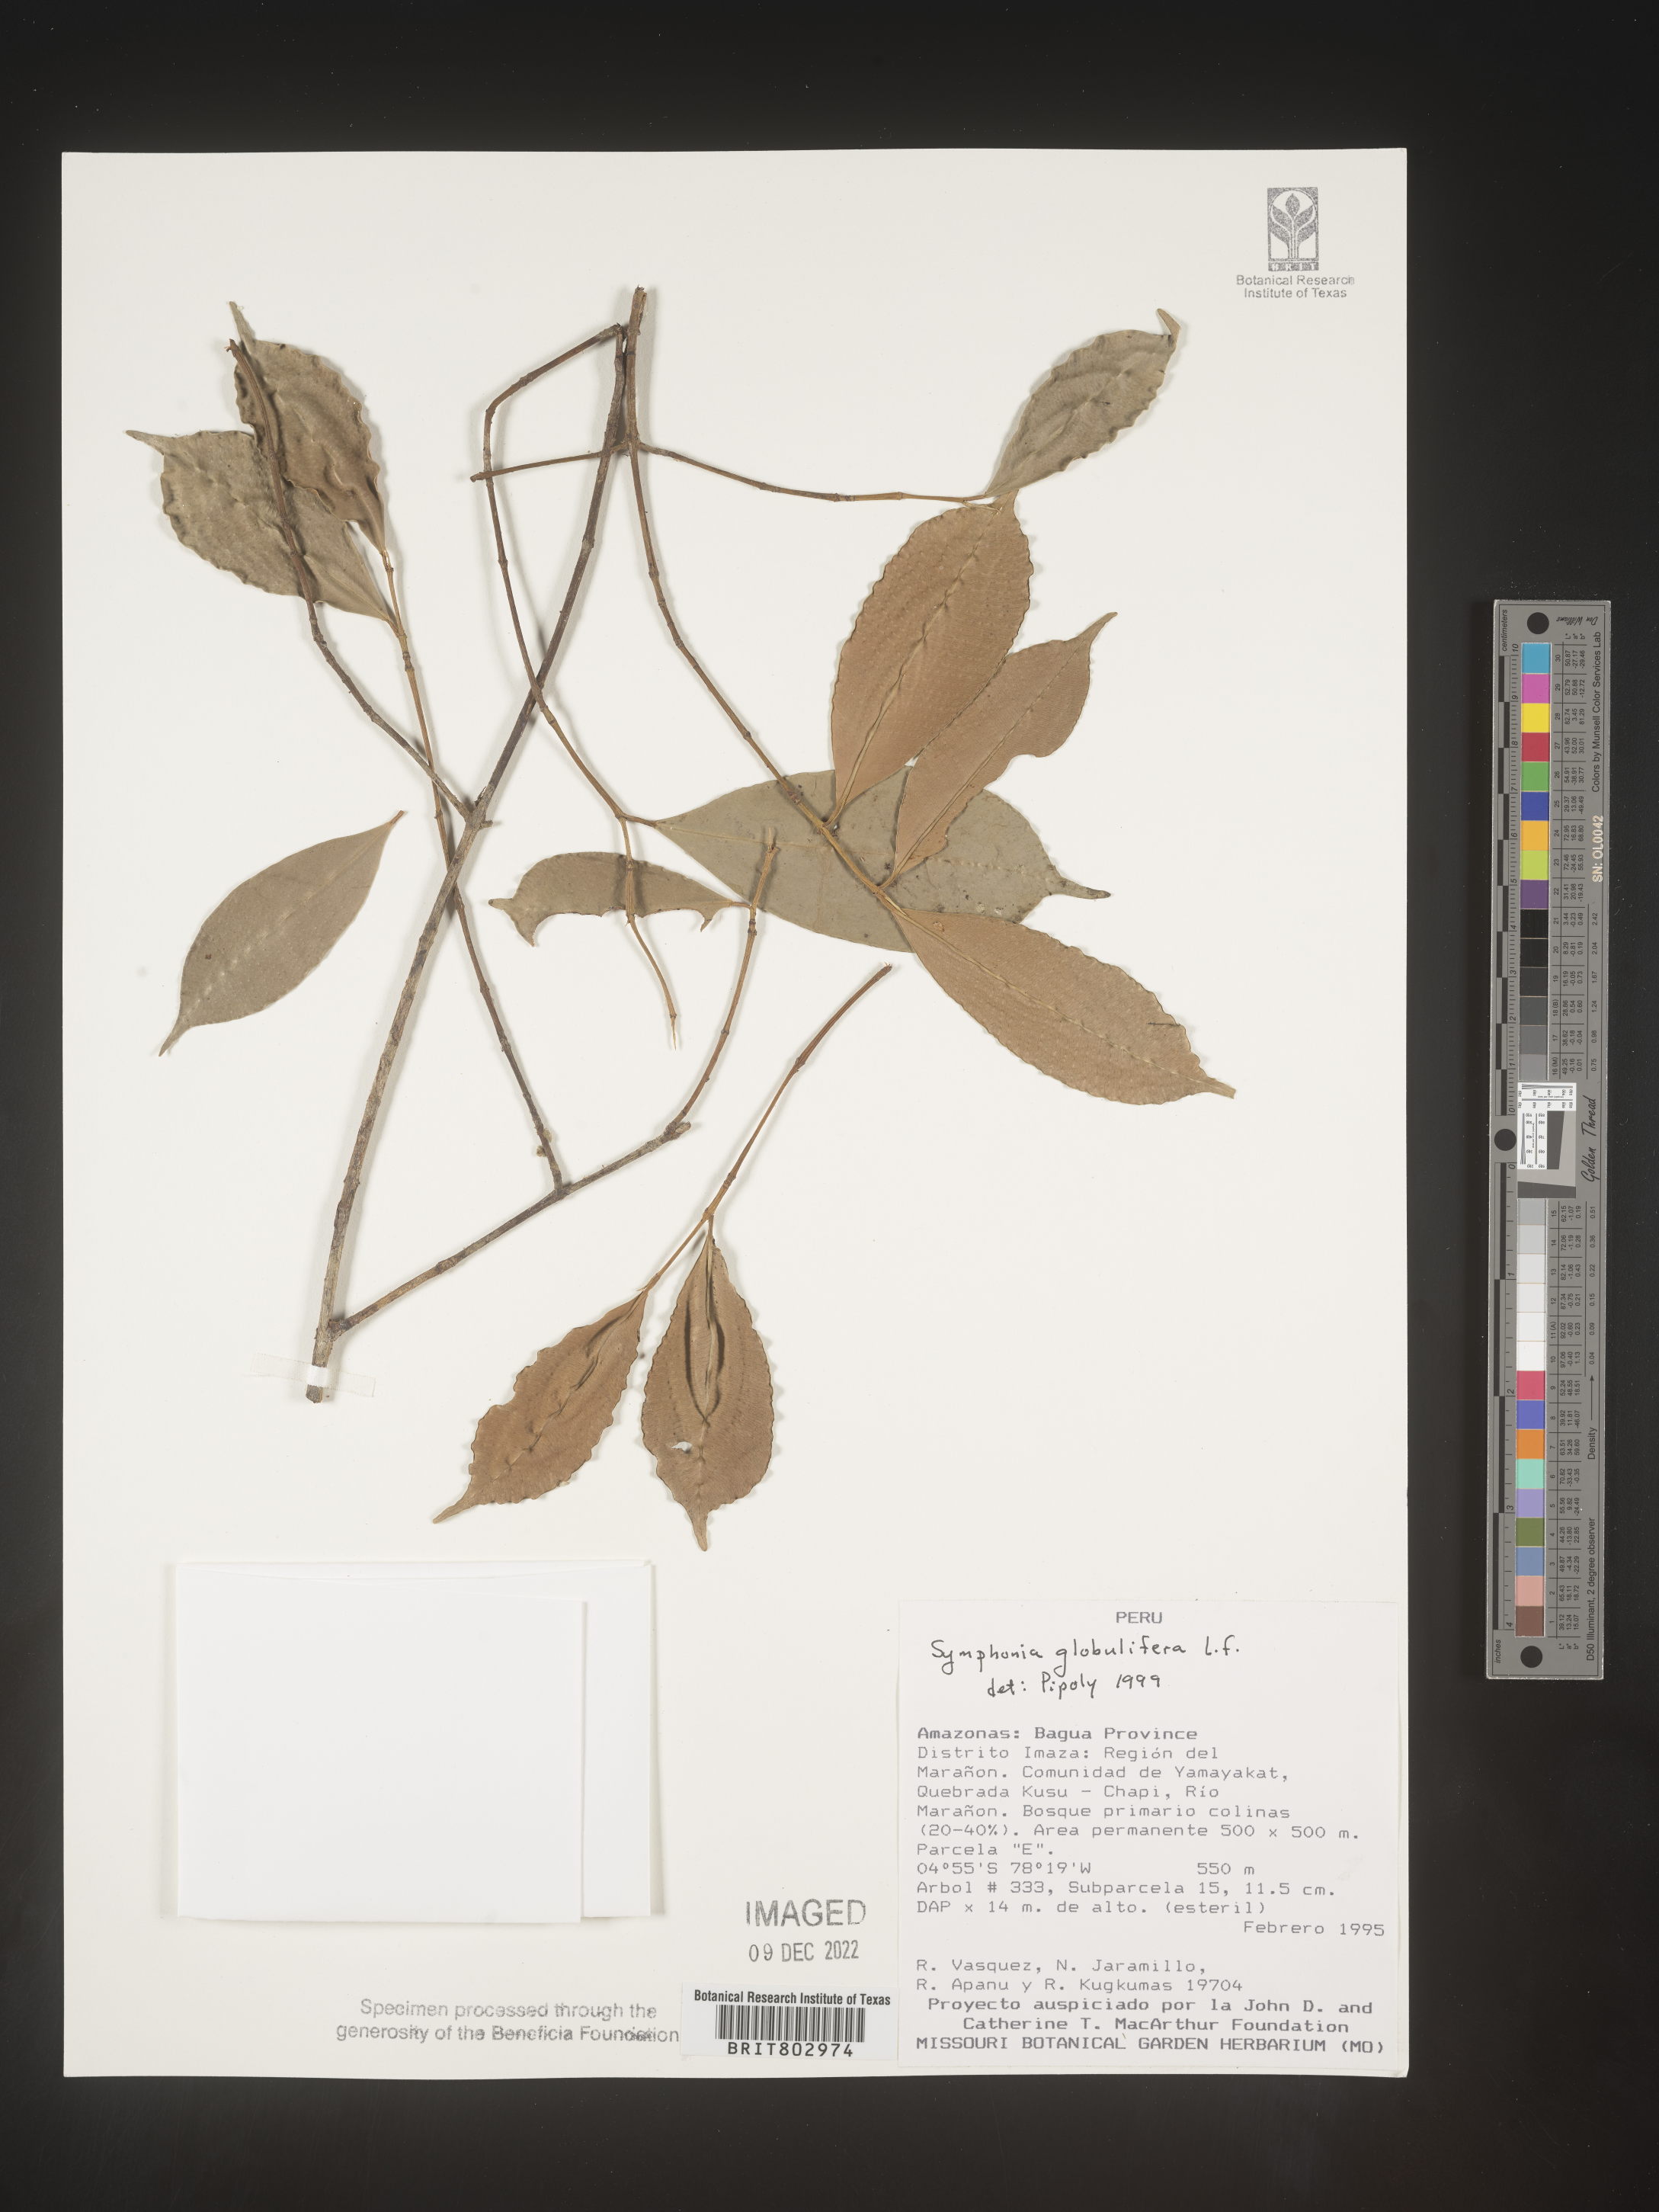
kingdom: Plantae
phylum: Tracheophyta
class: Magnoliopsida
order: Malpighiales
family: Clusiaceae
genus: Symphonia
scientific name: Symphonia globulifera
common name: Boarwood
